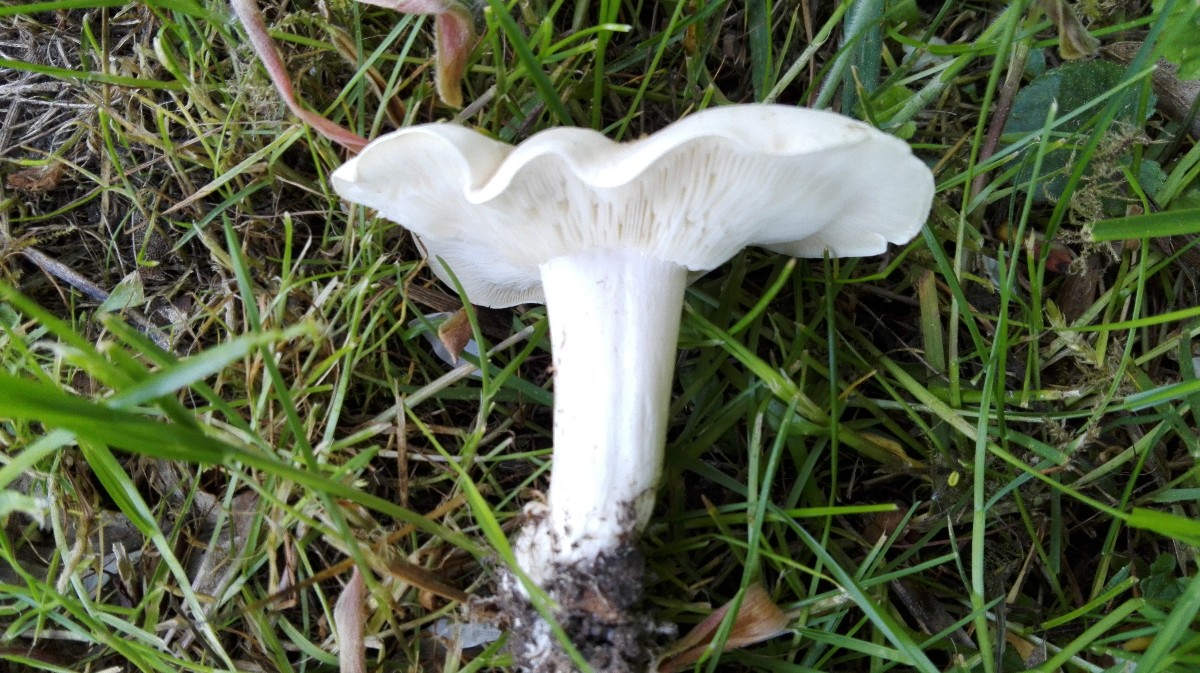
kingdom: Fungi
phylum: Basidiomycota
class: Agaricomycetes
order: Agaricales
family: Lyophyllaceae
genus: Calocybe
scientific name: Calocybe gambosa
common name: vårmusseron
